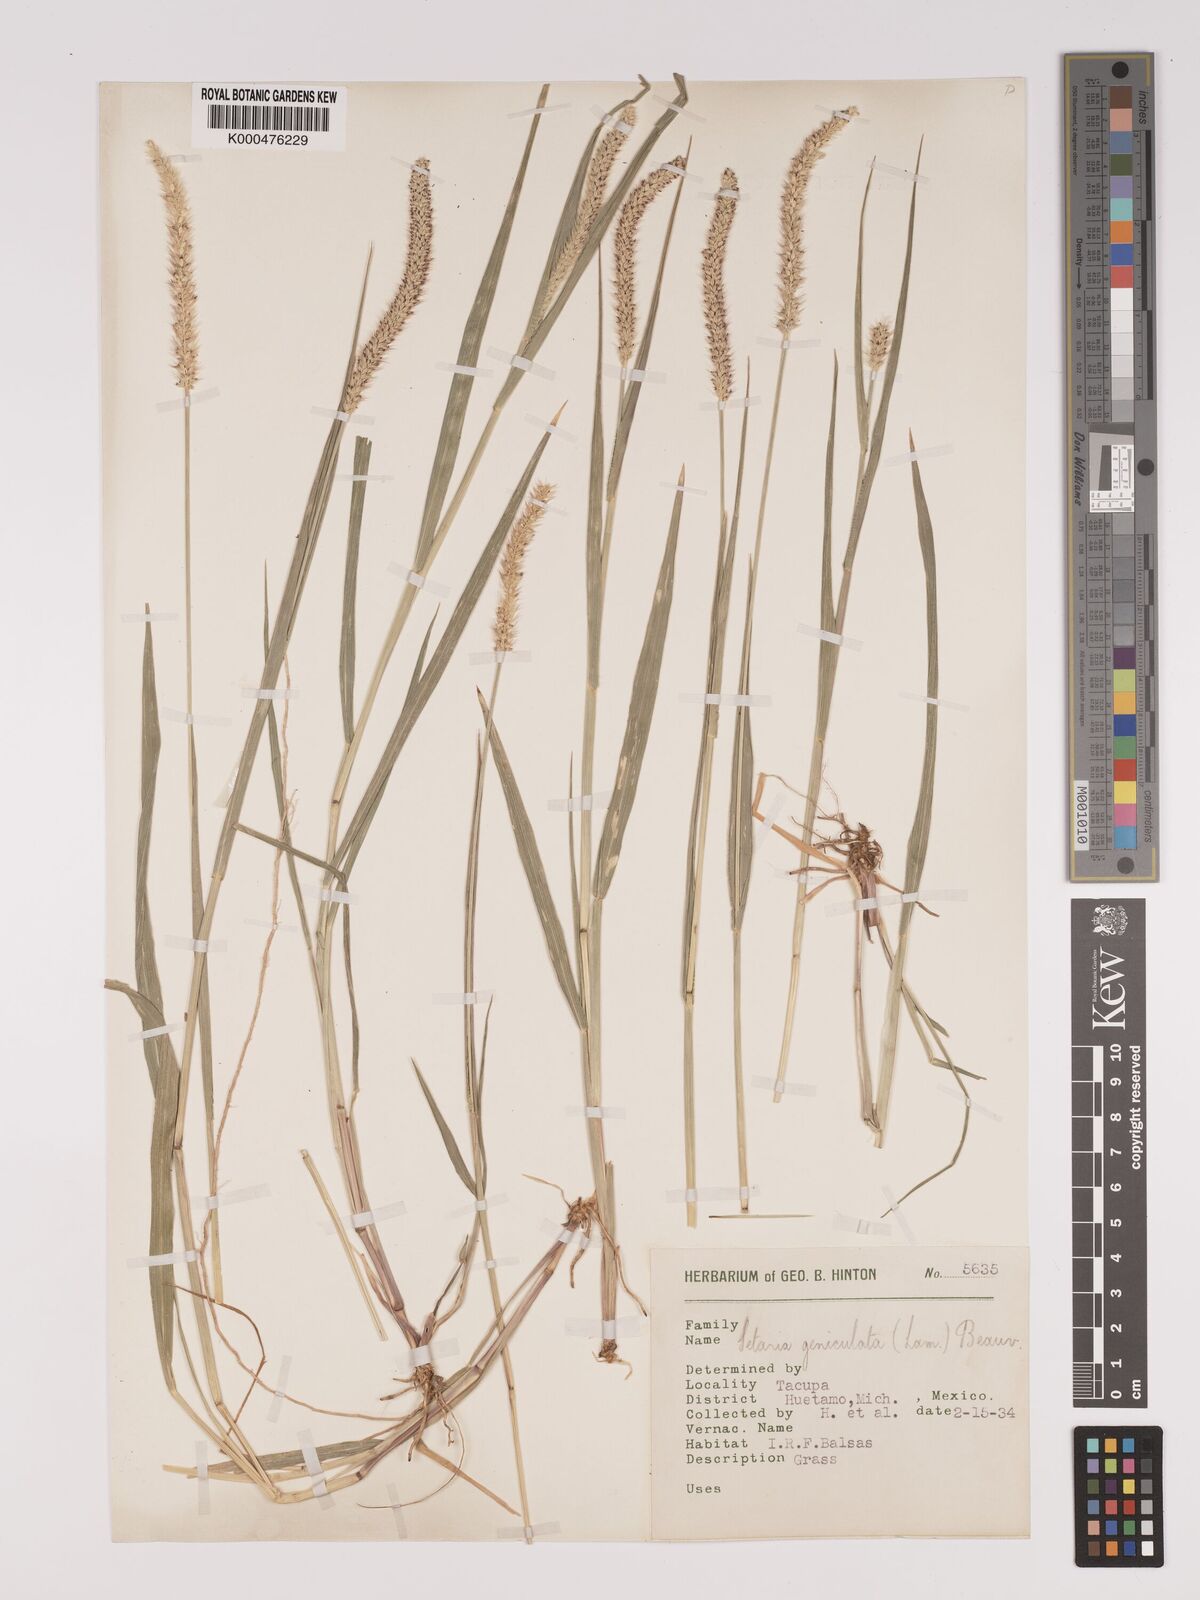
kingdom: Plantae
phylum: Tracheophyta
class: Liliopsida
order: Poales
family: Poaceae
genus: Setaria
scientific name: Setaria
